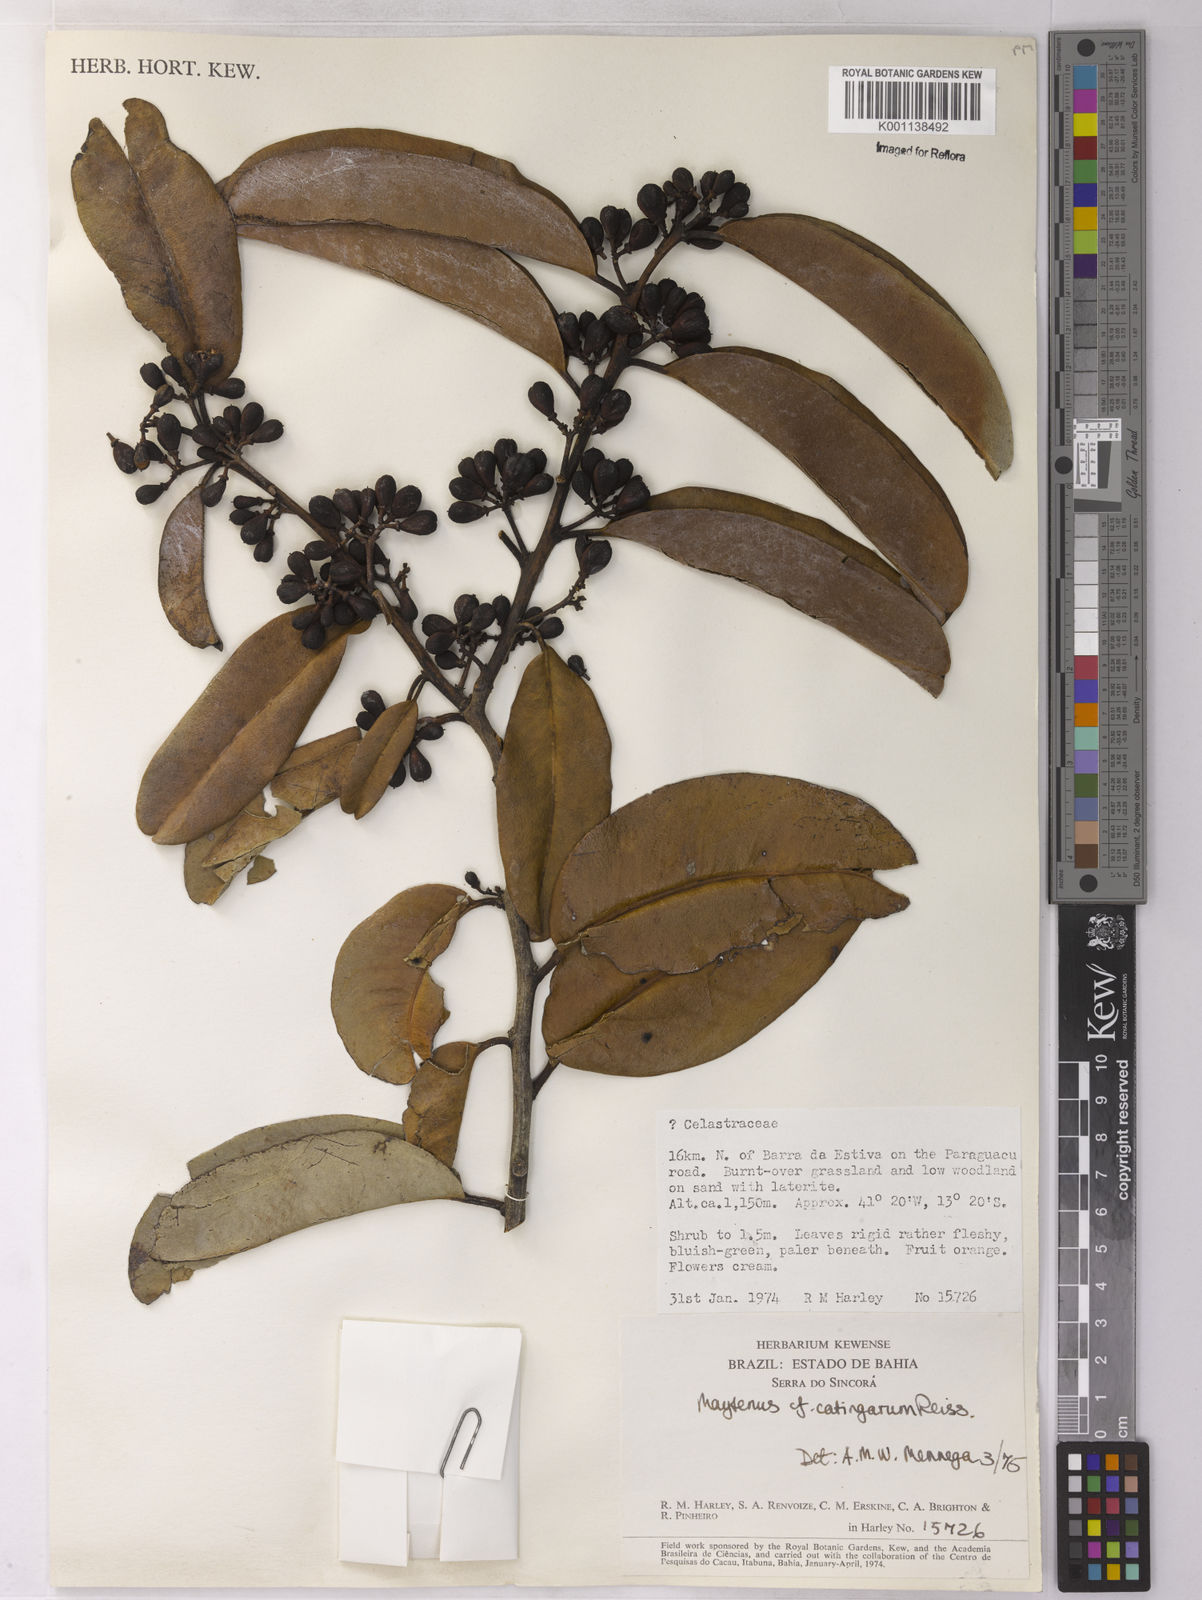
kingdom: Plantae
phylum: Tracheophyta
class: Magnoliopsida
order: Celastrales
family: Celastraceae
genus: Monteverdia
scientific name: Monteverdia catingarum
